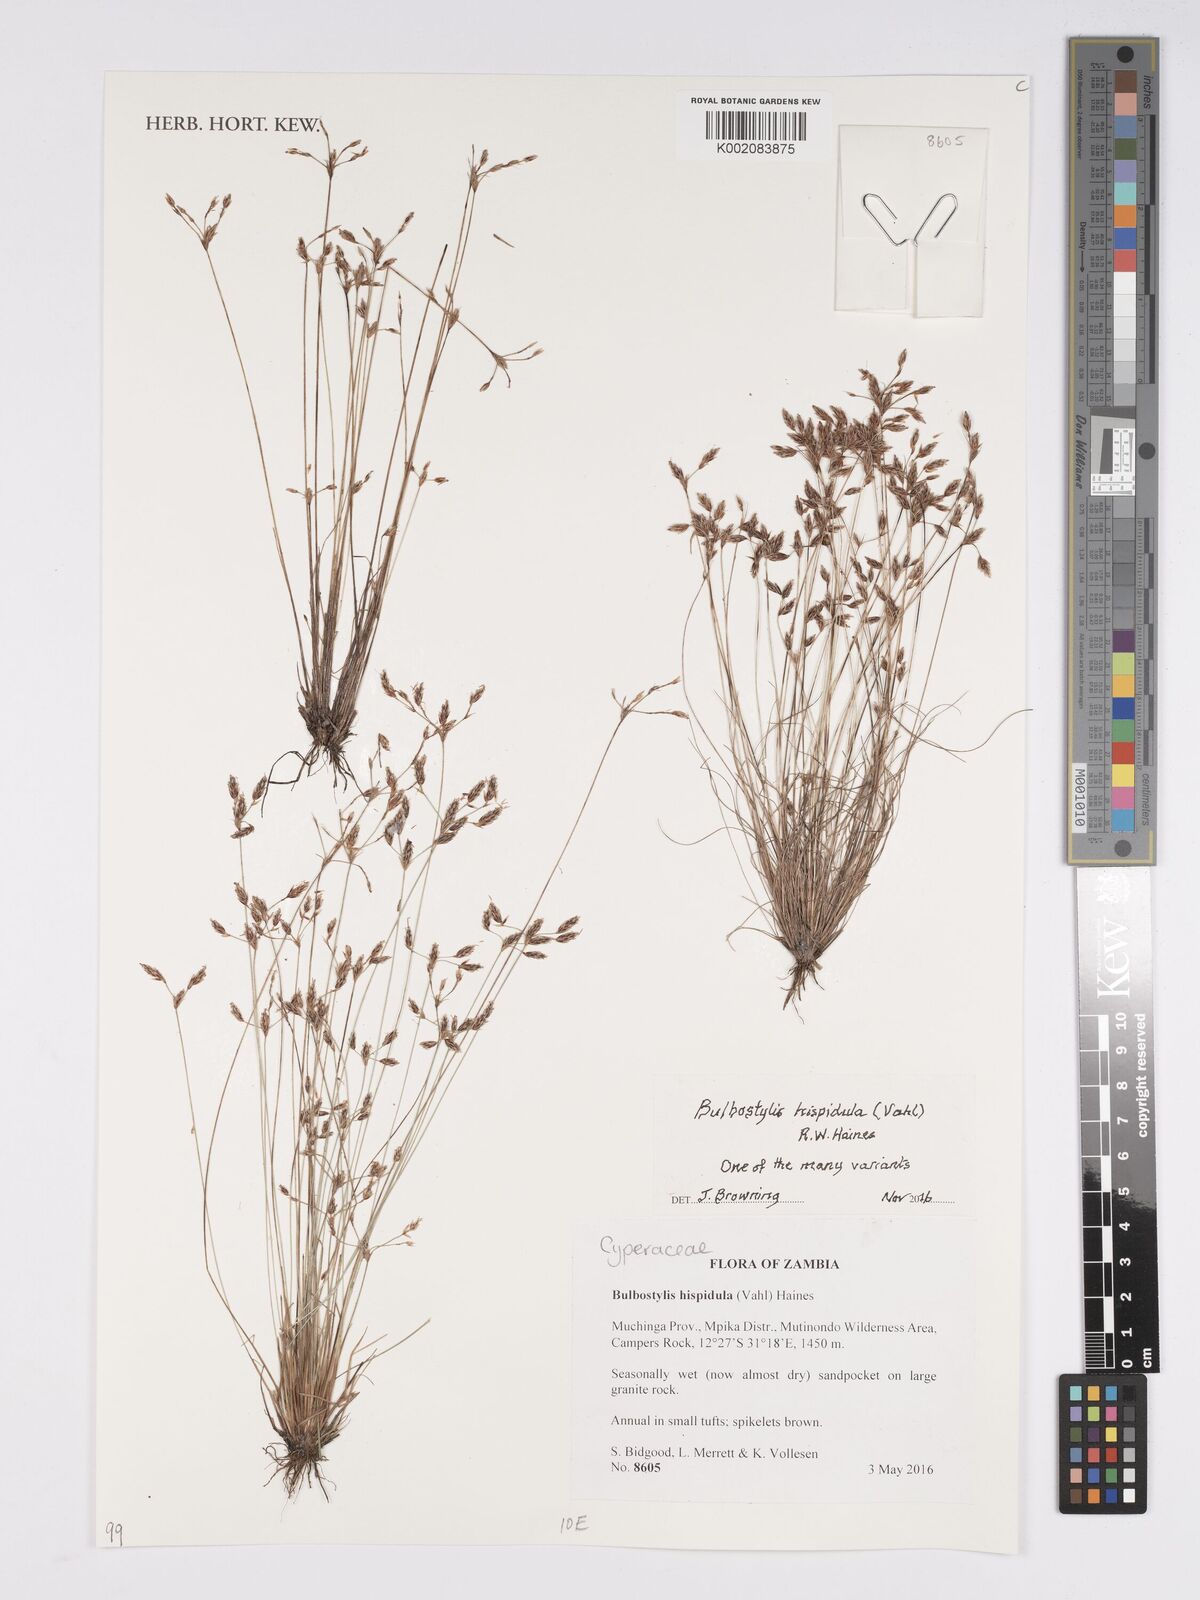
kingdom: Plantae
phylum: Tracheophyta
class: Liliopsida
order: Poales
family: Cyperaceae
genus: Bulbostylis
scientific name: Bulbostylis hispidula
